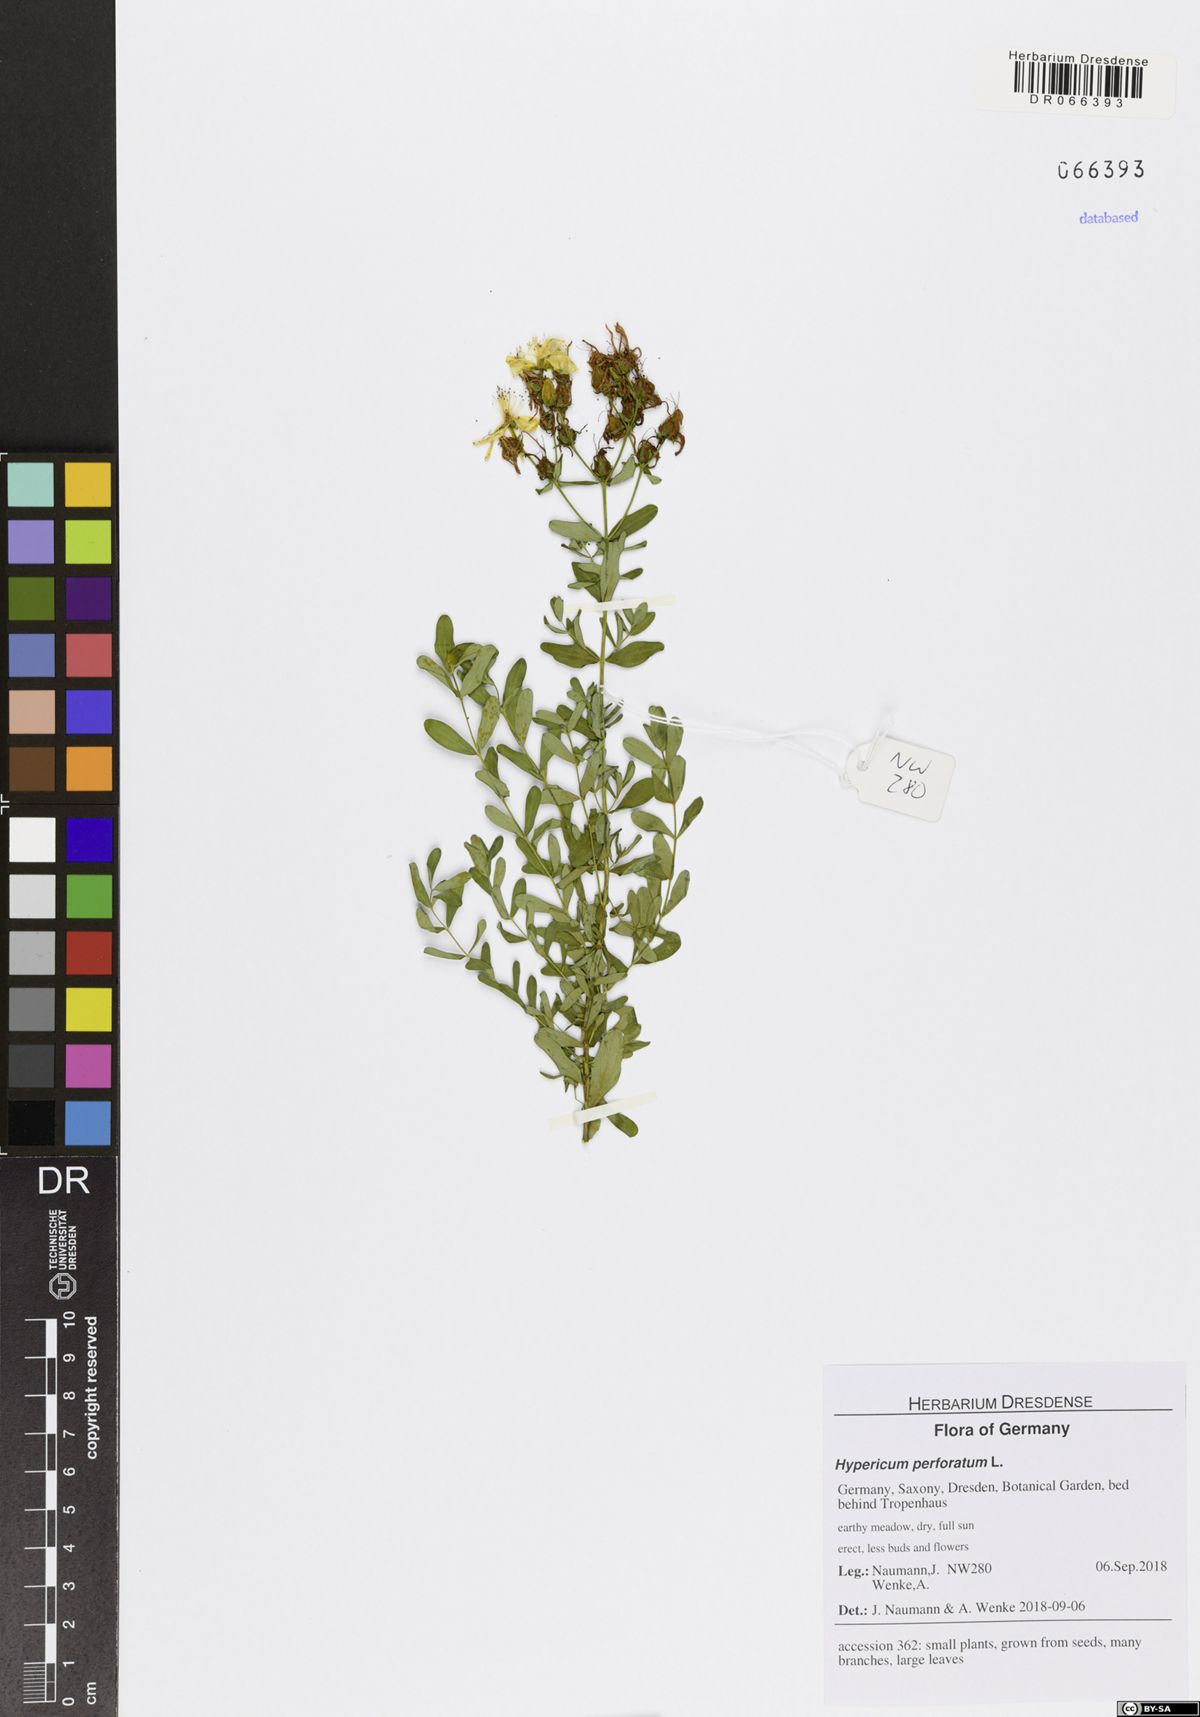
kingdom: Plantae
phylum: Tracheophyta
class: Magnoliopsida
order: Malpighiales
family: Hypericaceae
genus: Hypericum
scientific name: Hypericum perforatum
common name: Common st. johnswort
